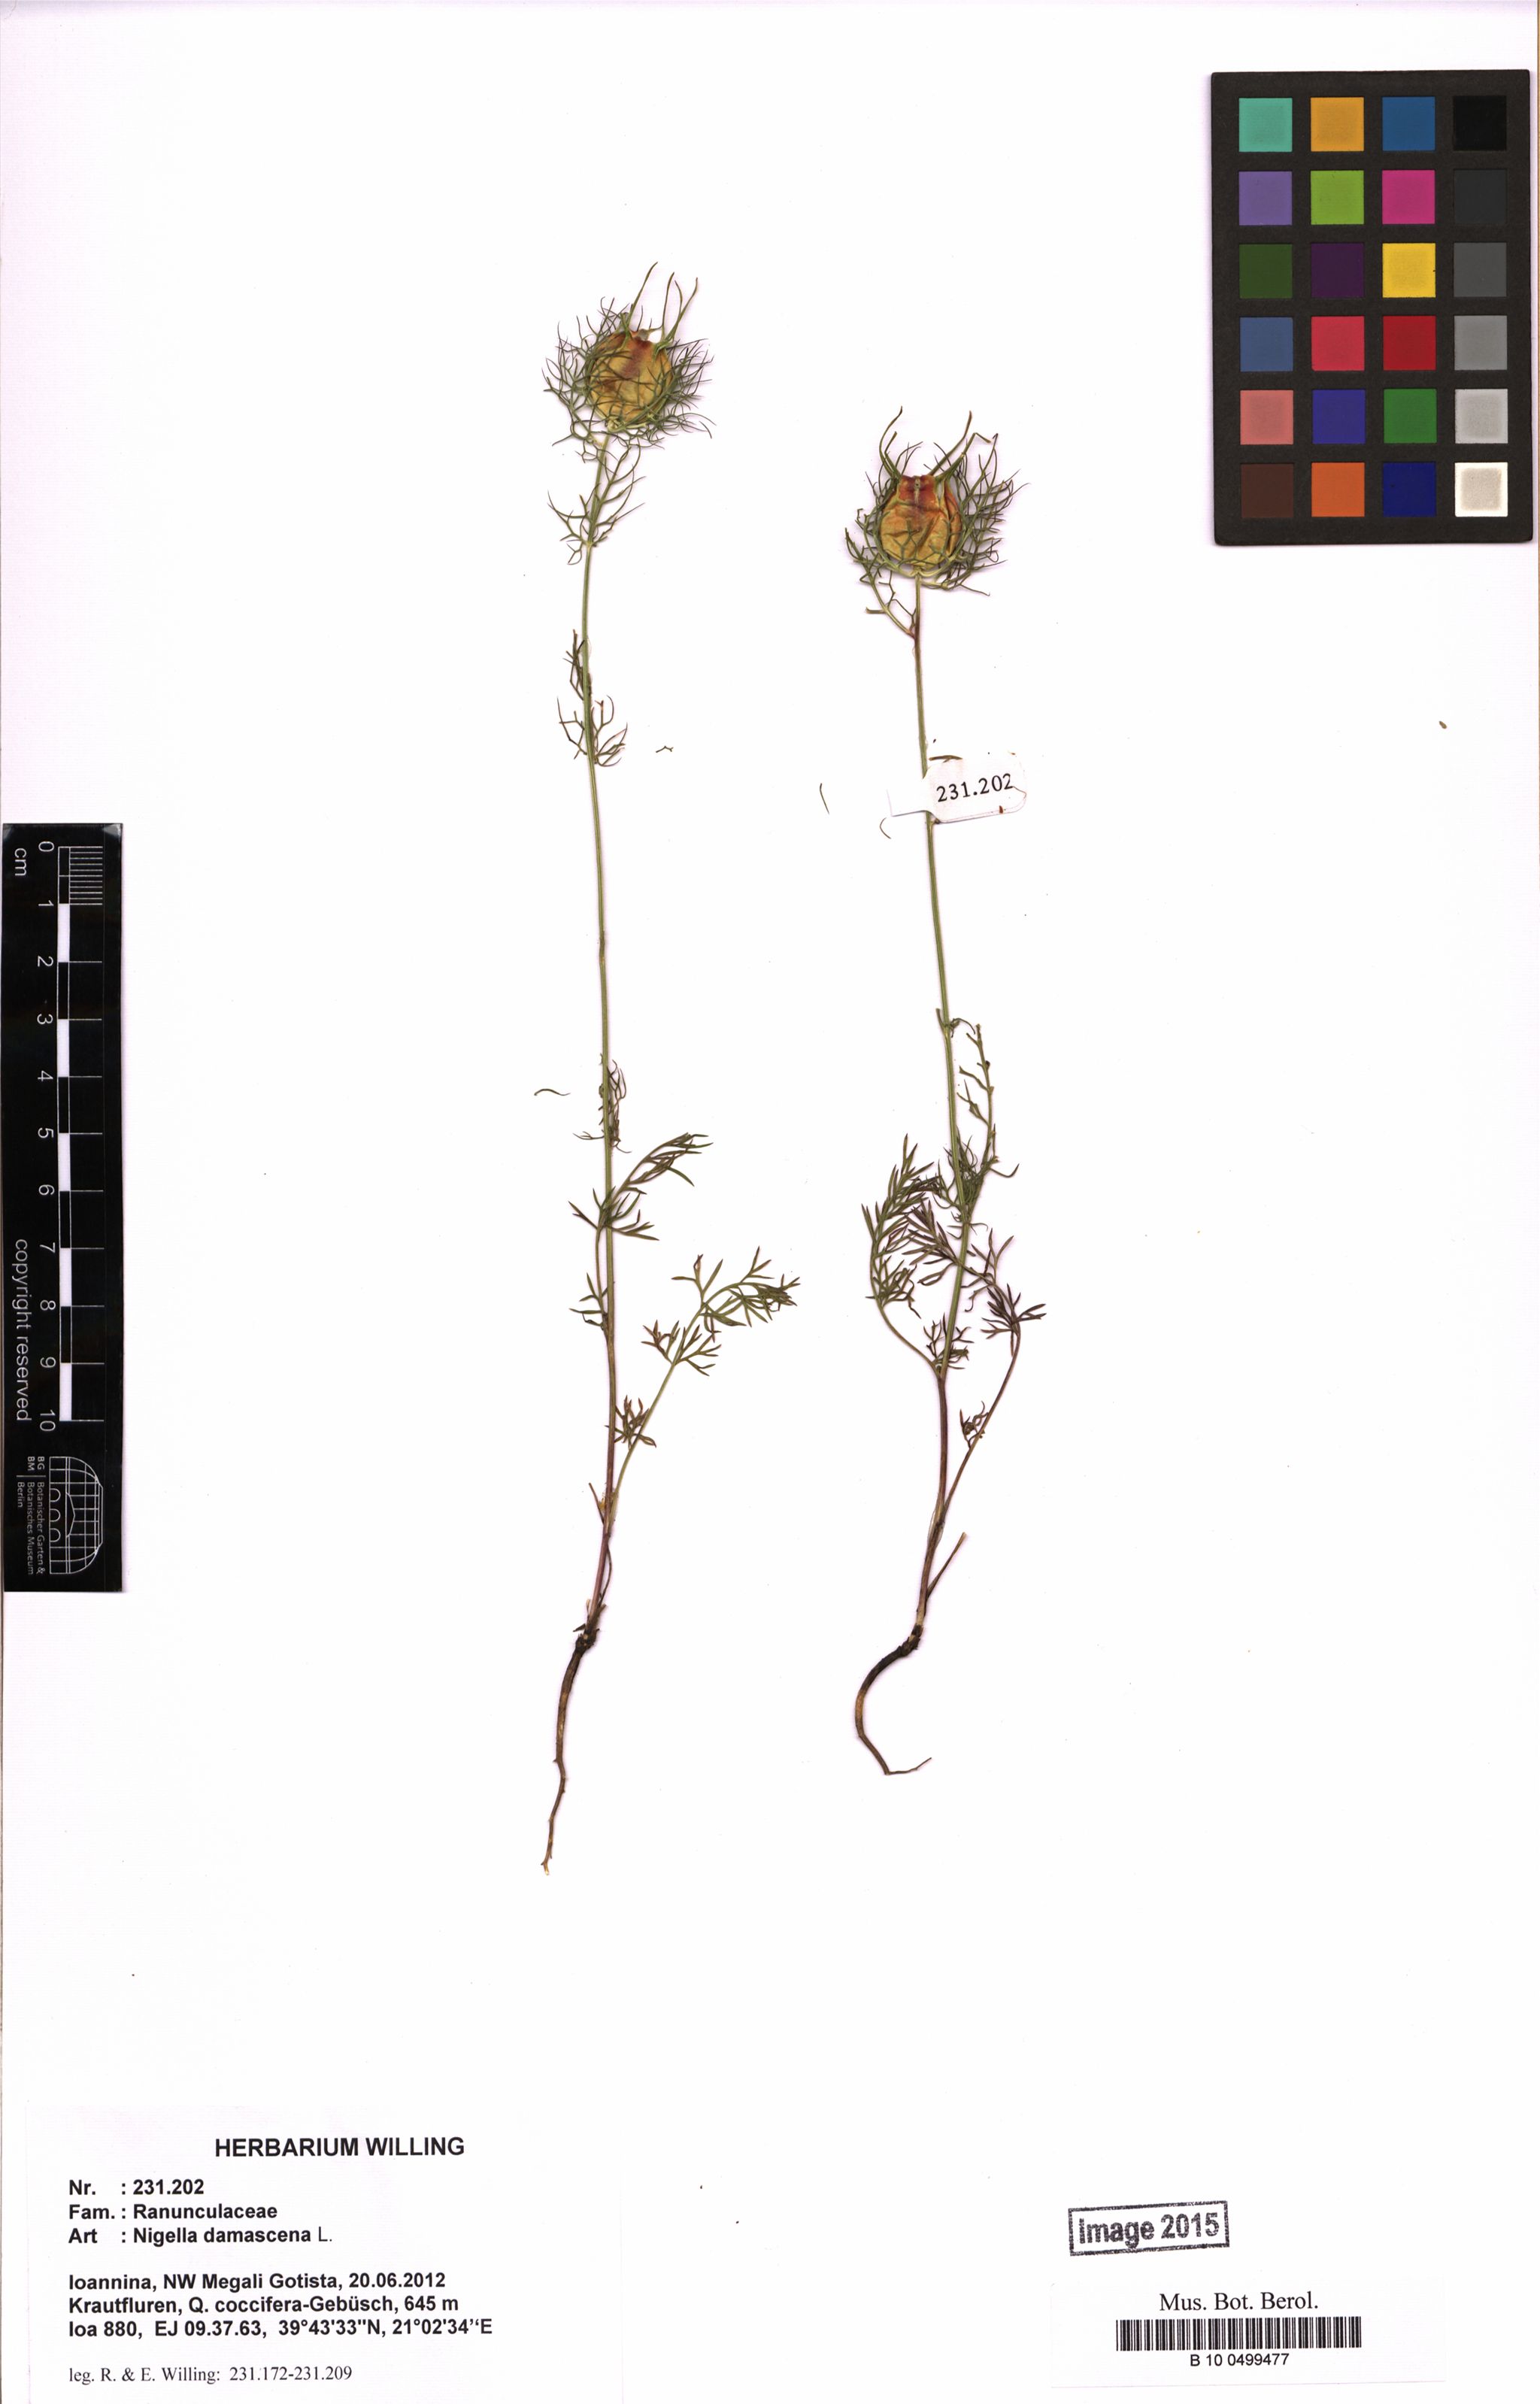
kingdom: Plantae
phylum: Tracheophyta
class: Magnoliopsida
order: Ranunculales
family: Ranunculaceae
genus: Nigella
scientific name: Nigella damascena
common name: Love-in-a-mist
